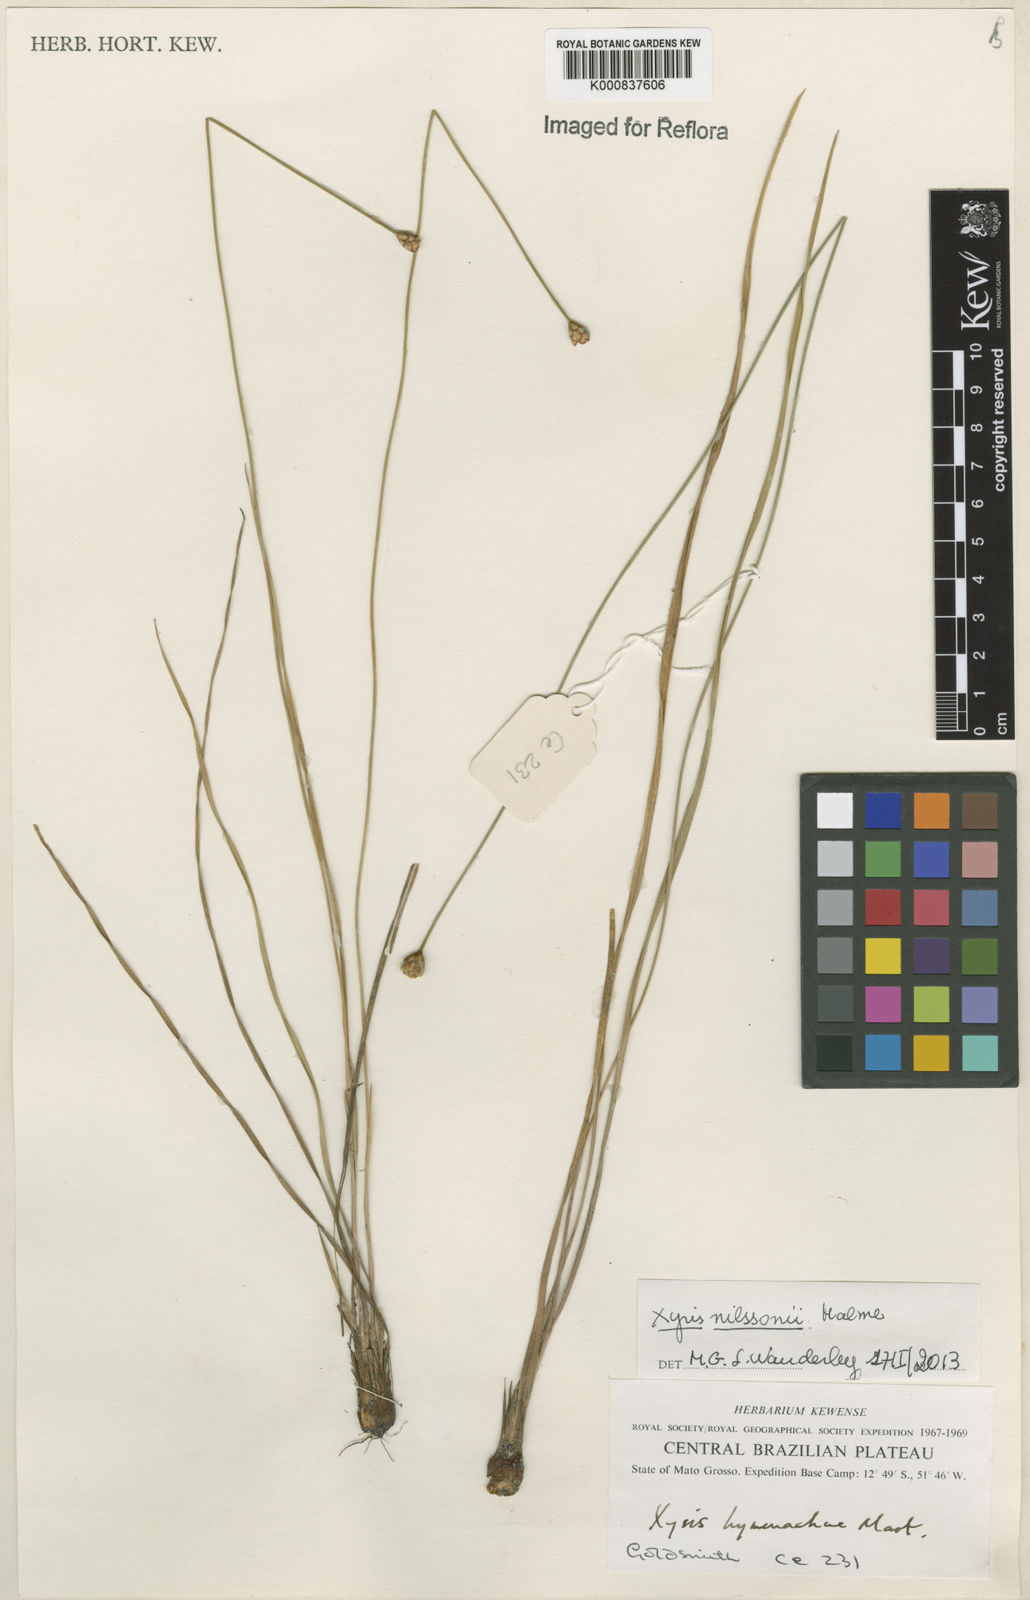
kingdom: Plantae
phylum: Tracheophyta
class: Liliopsida
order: Poales
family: Xyridaceae
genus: Xyris
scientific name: Xyris nilssonii
